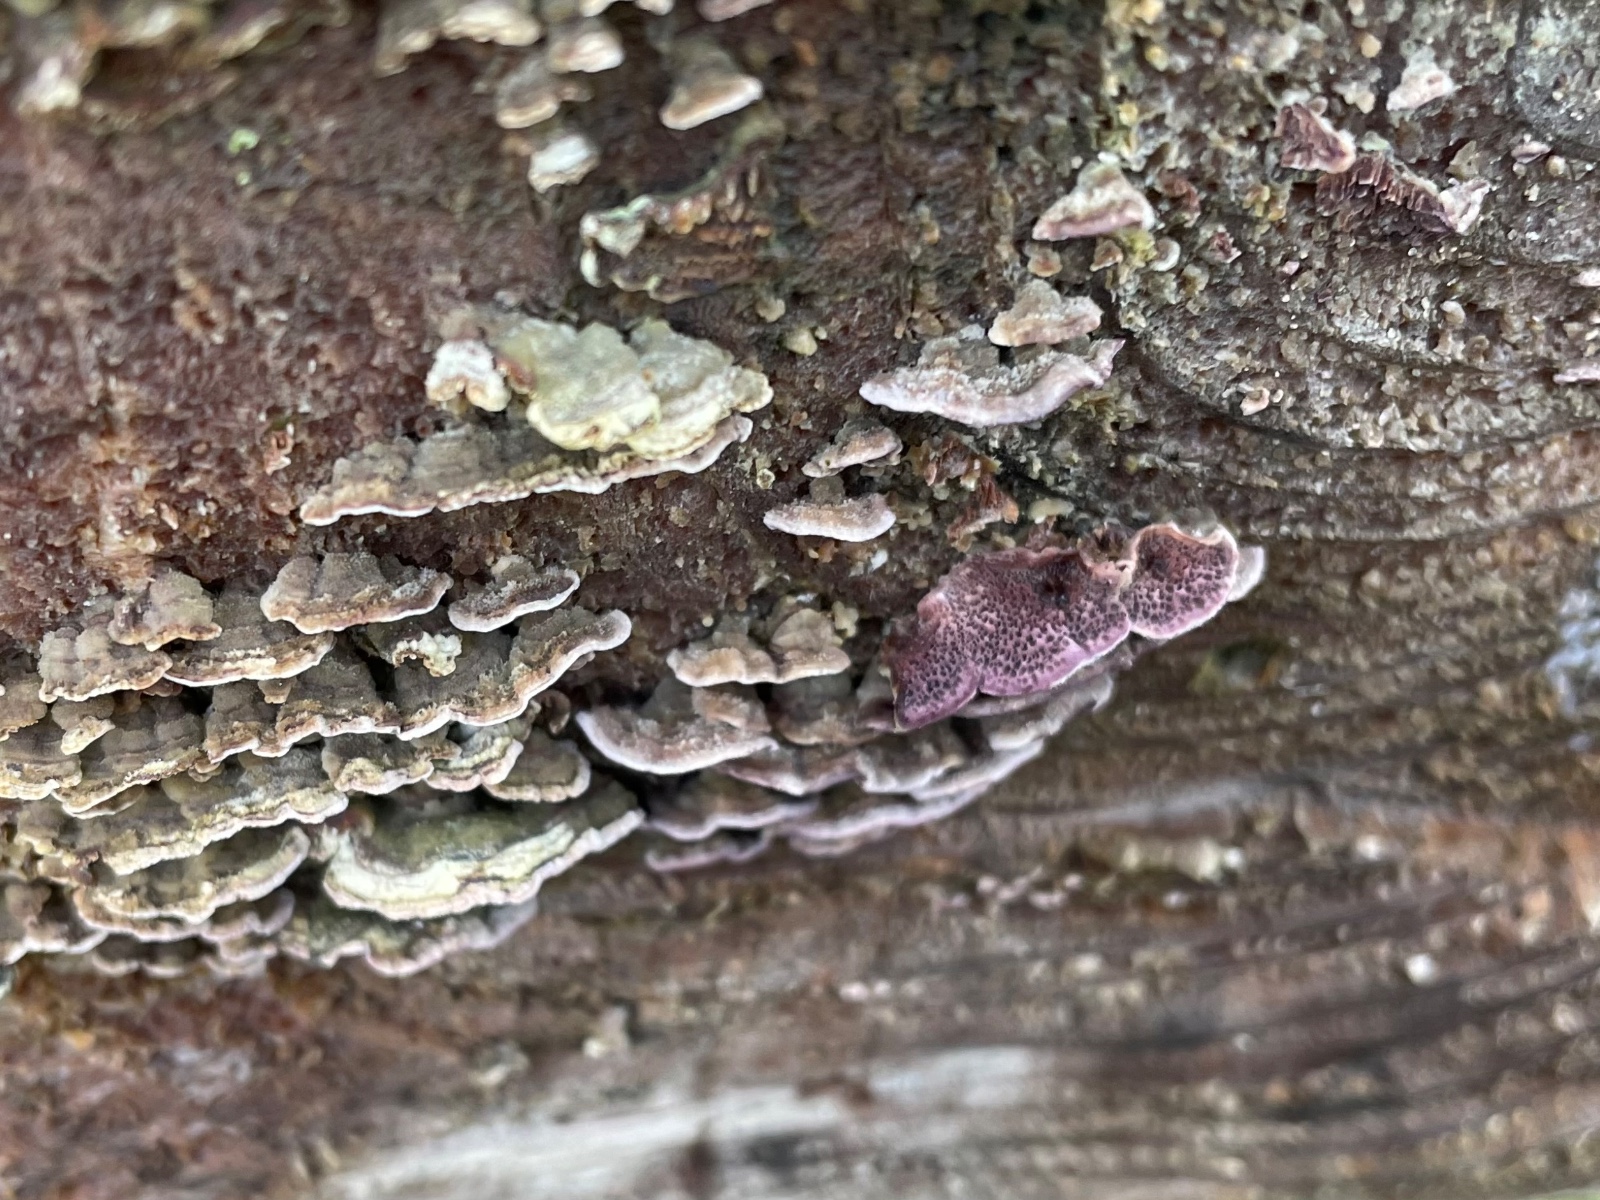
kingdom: Fungi
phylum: Basidiomycota
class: Agaricomycetes
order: Hymenochaetales
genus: Trichaptum
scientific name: Trichaptum abietinum
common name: almindelig violporesvamp
